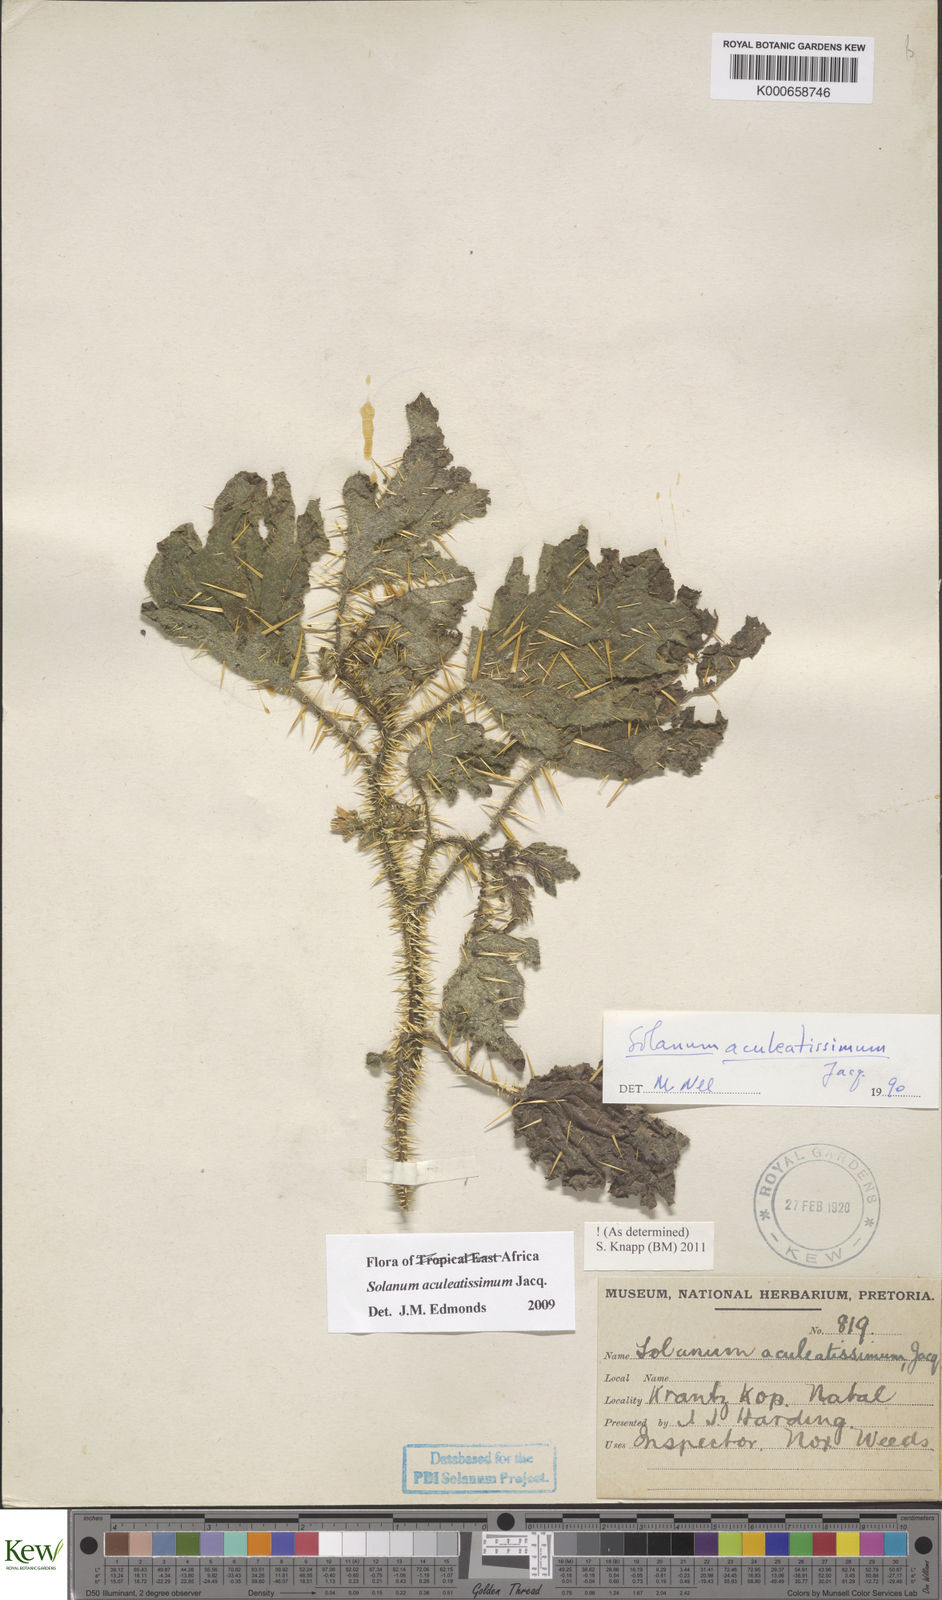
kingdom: Plantae
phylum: Tracheophyta
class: Magnoliopsida
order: Solanales
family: Solanaceae
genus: Solanum
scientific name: Solanum aculeatissimum
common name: Dutch eggplant
